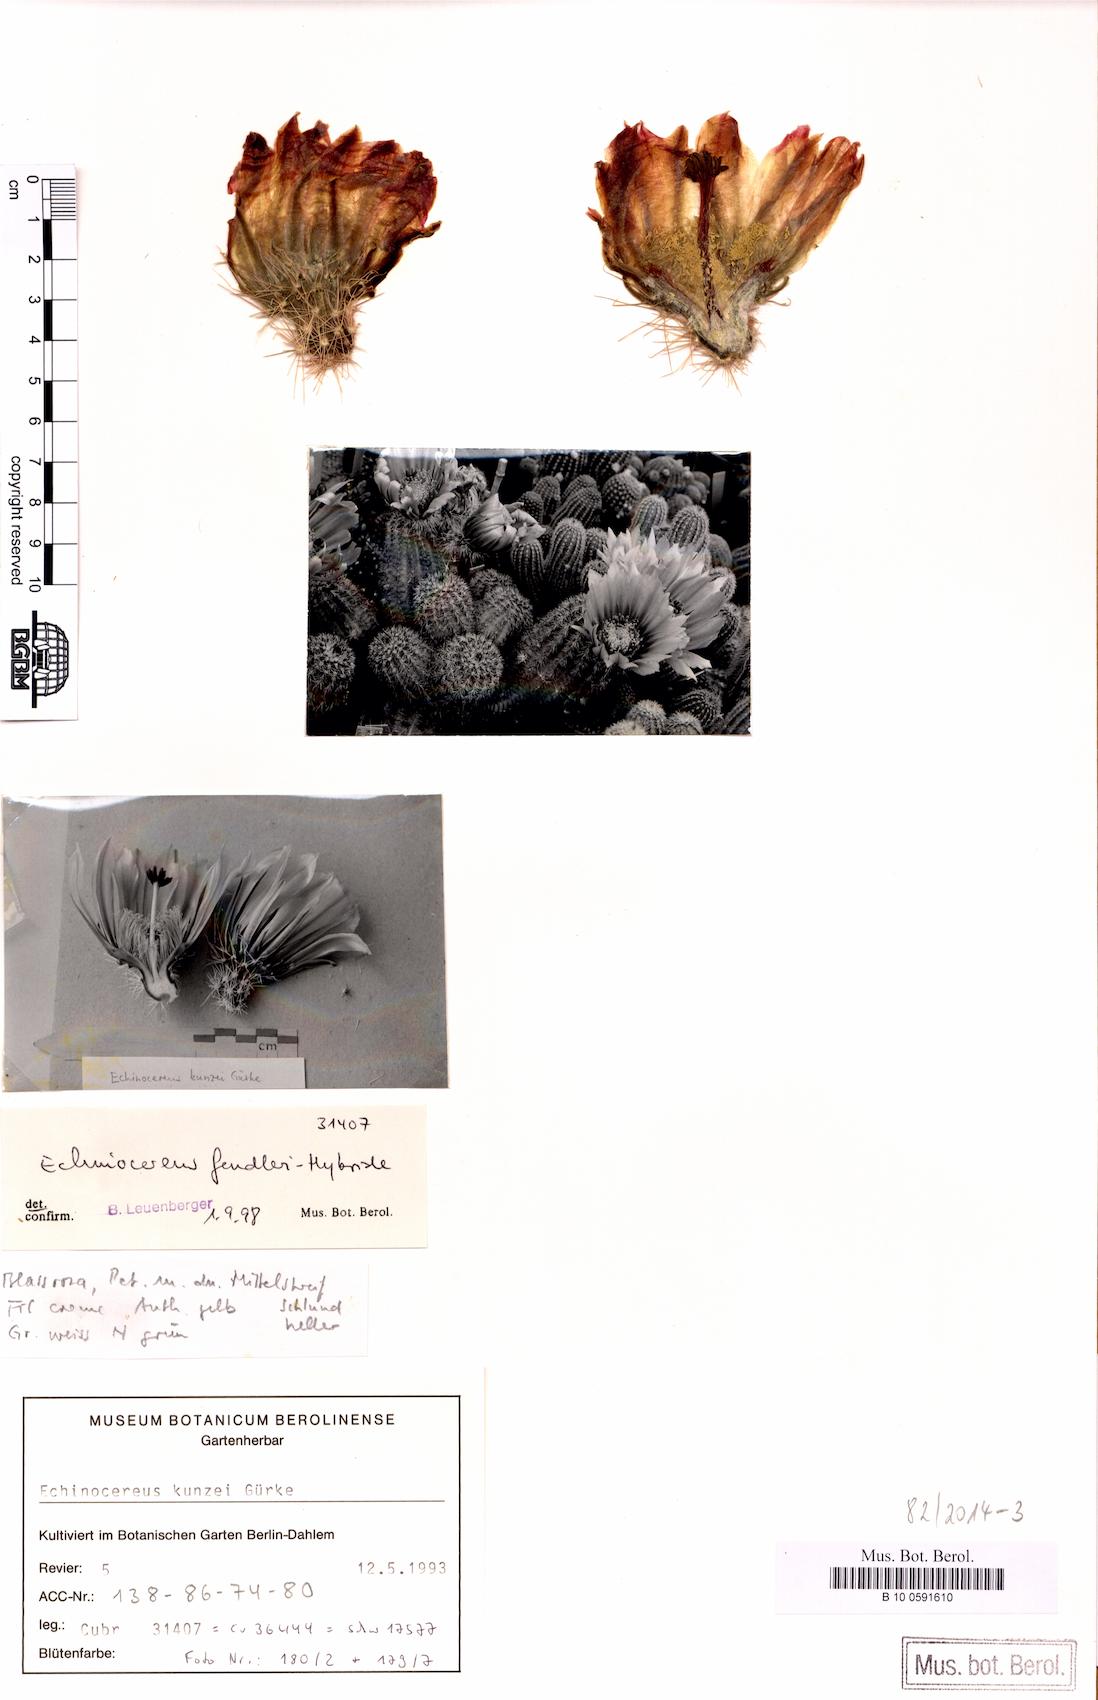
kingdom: Plantae
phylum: Tracheophyta
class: Magnoliopsida
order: Caryophyllales
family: Cactaceae
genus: Echinocereus
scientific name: Echinocereus kunzei
